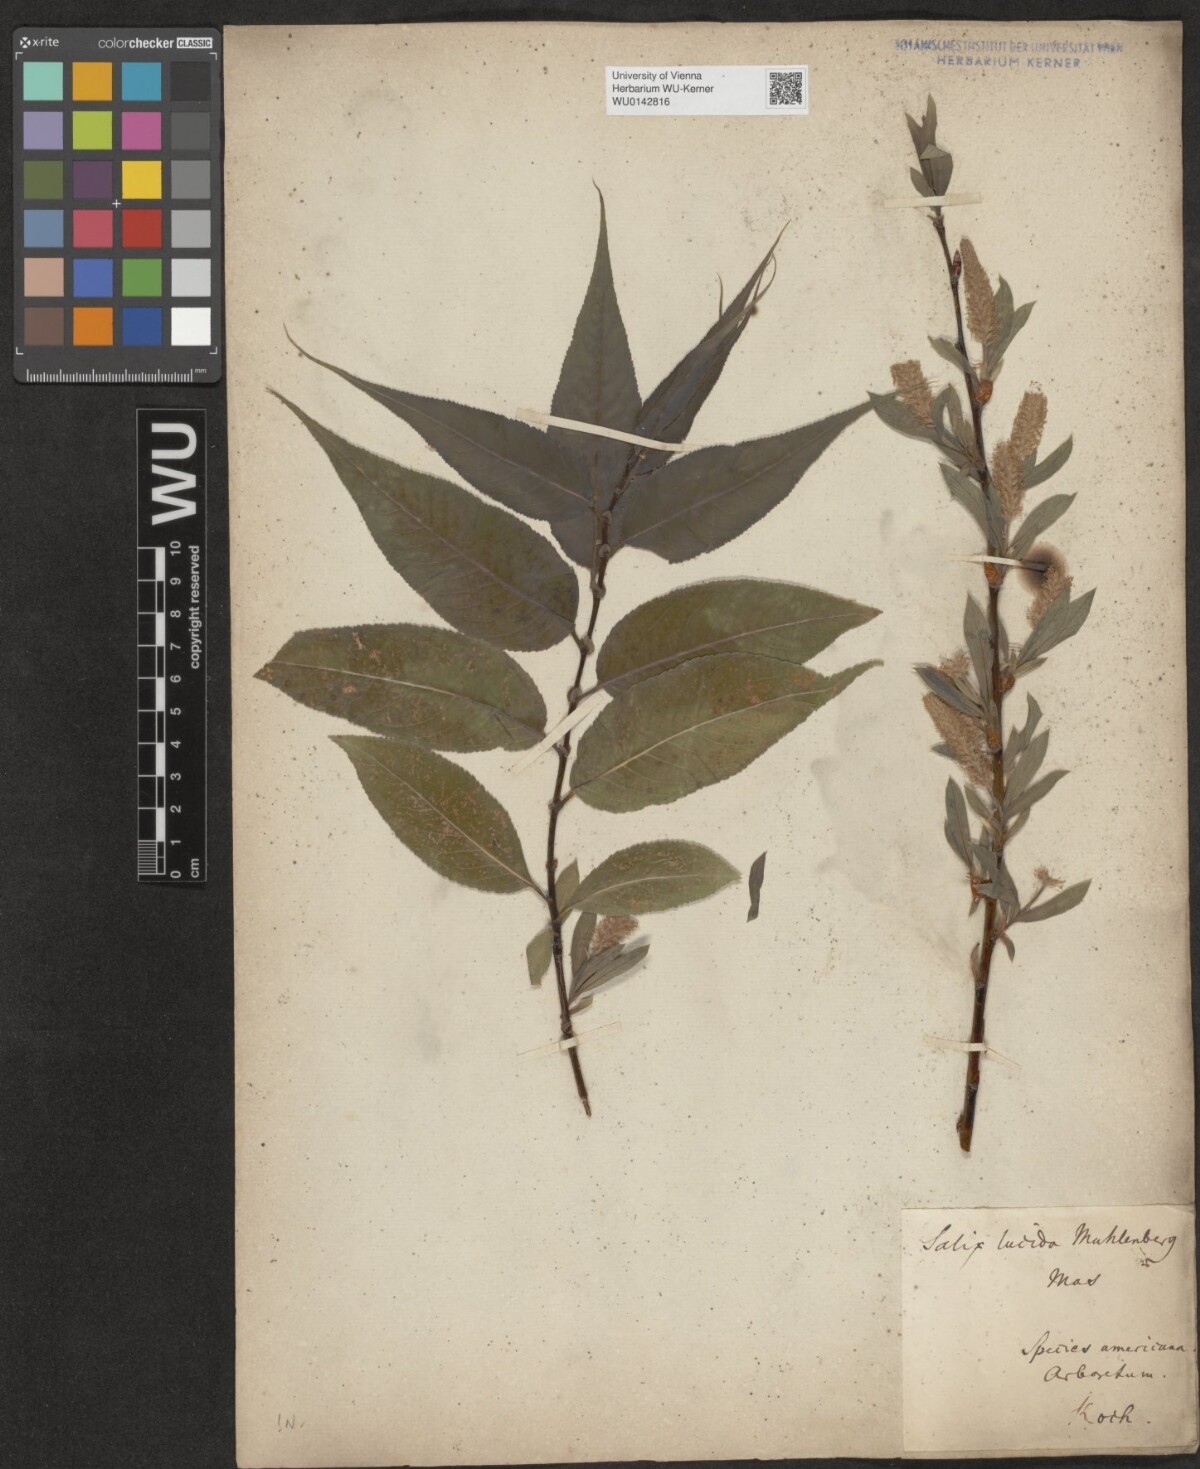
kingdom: Plantae
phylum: Tracheophyta
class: Magnoliopsida
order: Malpighiales
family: Salicaceae
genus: Salix
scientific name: Salix lucida
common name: Shining willow
